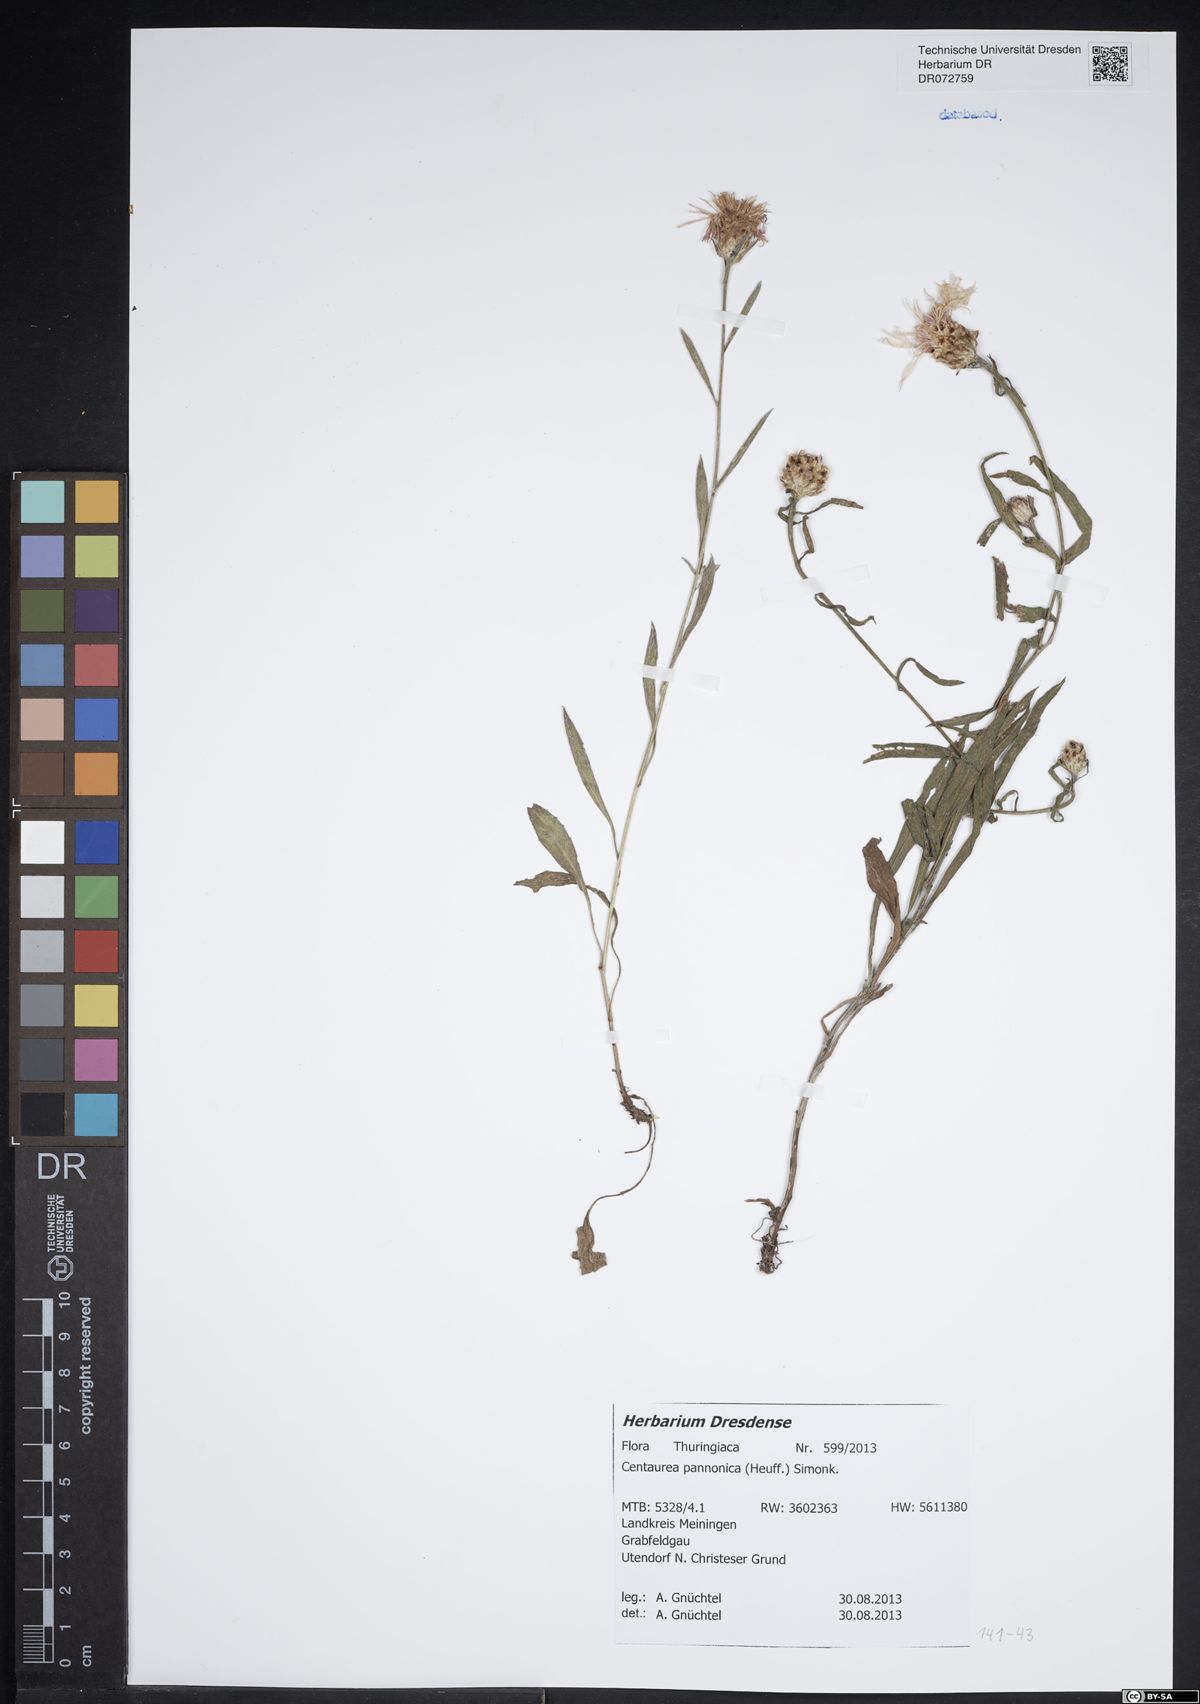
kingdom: Plantae
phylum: Tracheophyta
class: Magnoliopsida
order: Asterales
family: Asteraceae
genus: Centaurea
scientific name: Centaurea pannonica
